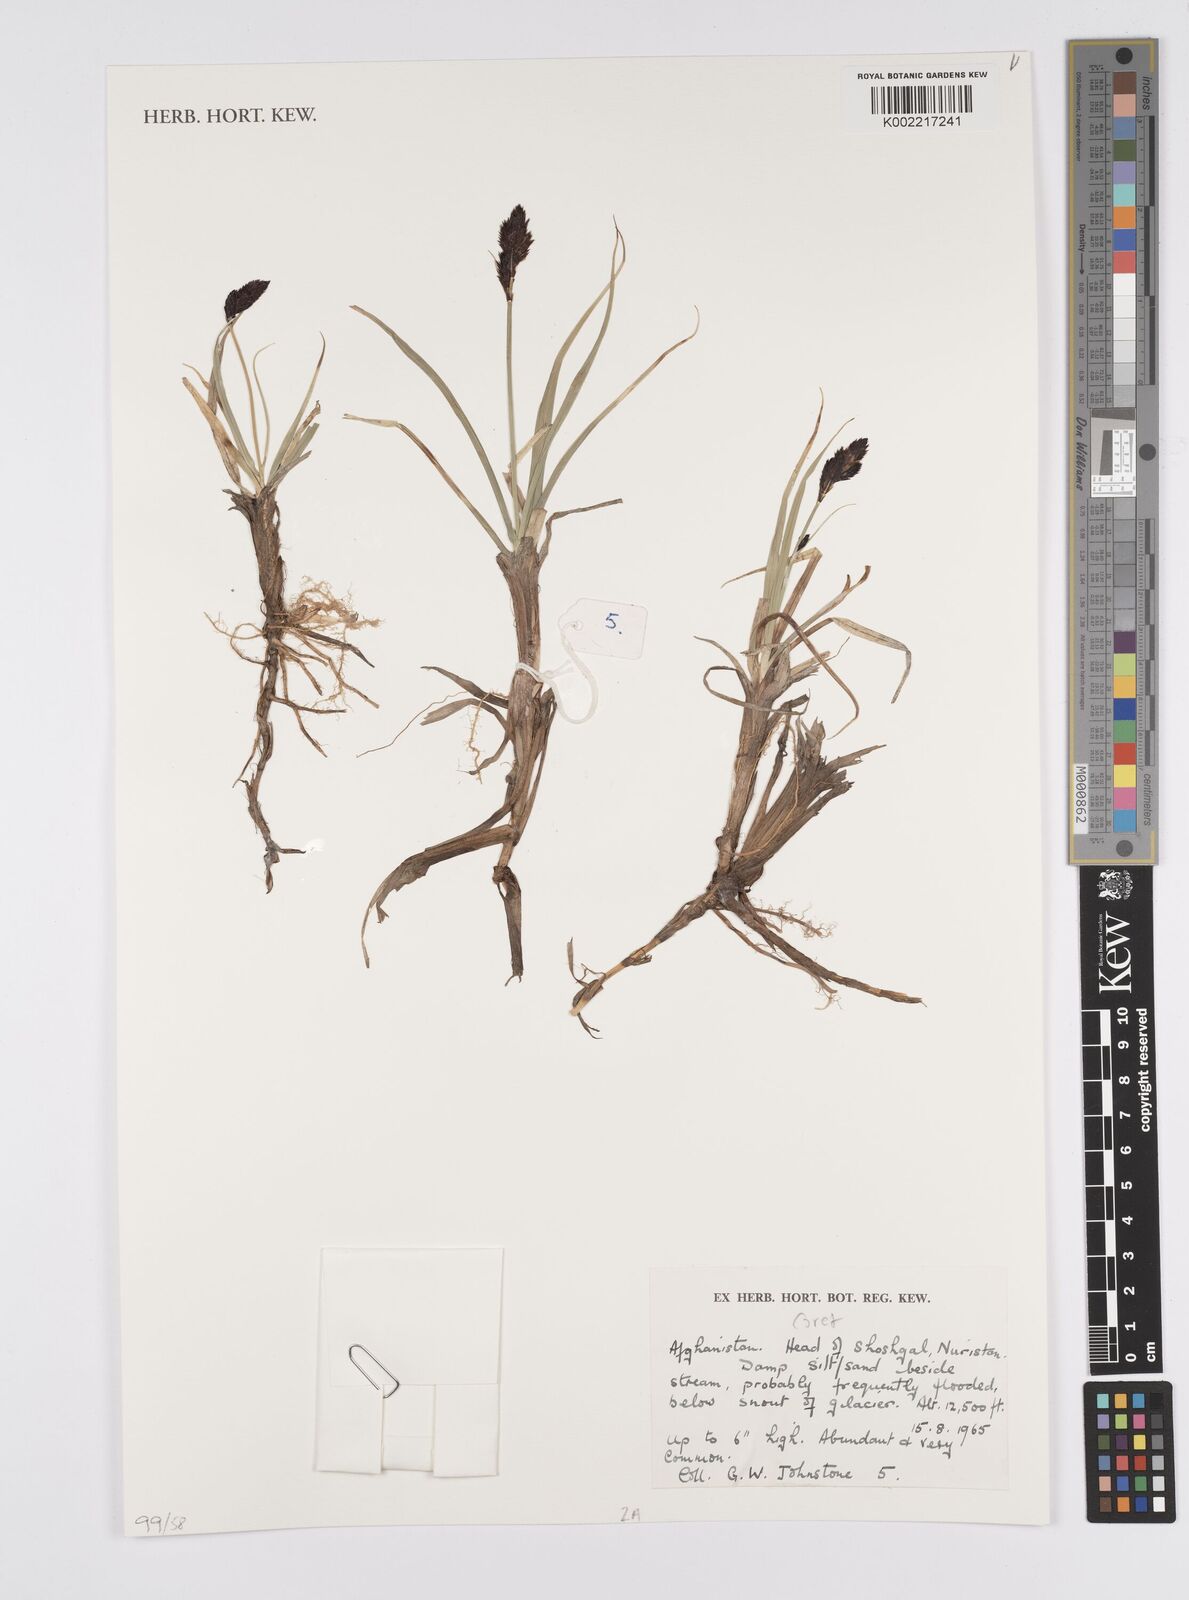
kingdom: Plantae
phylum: Tracheophyta
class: Liliopsida
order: Poales
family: Cyperaceae
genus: Carex
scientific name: Carex
